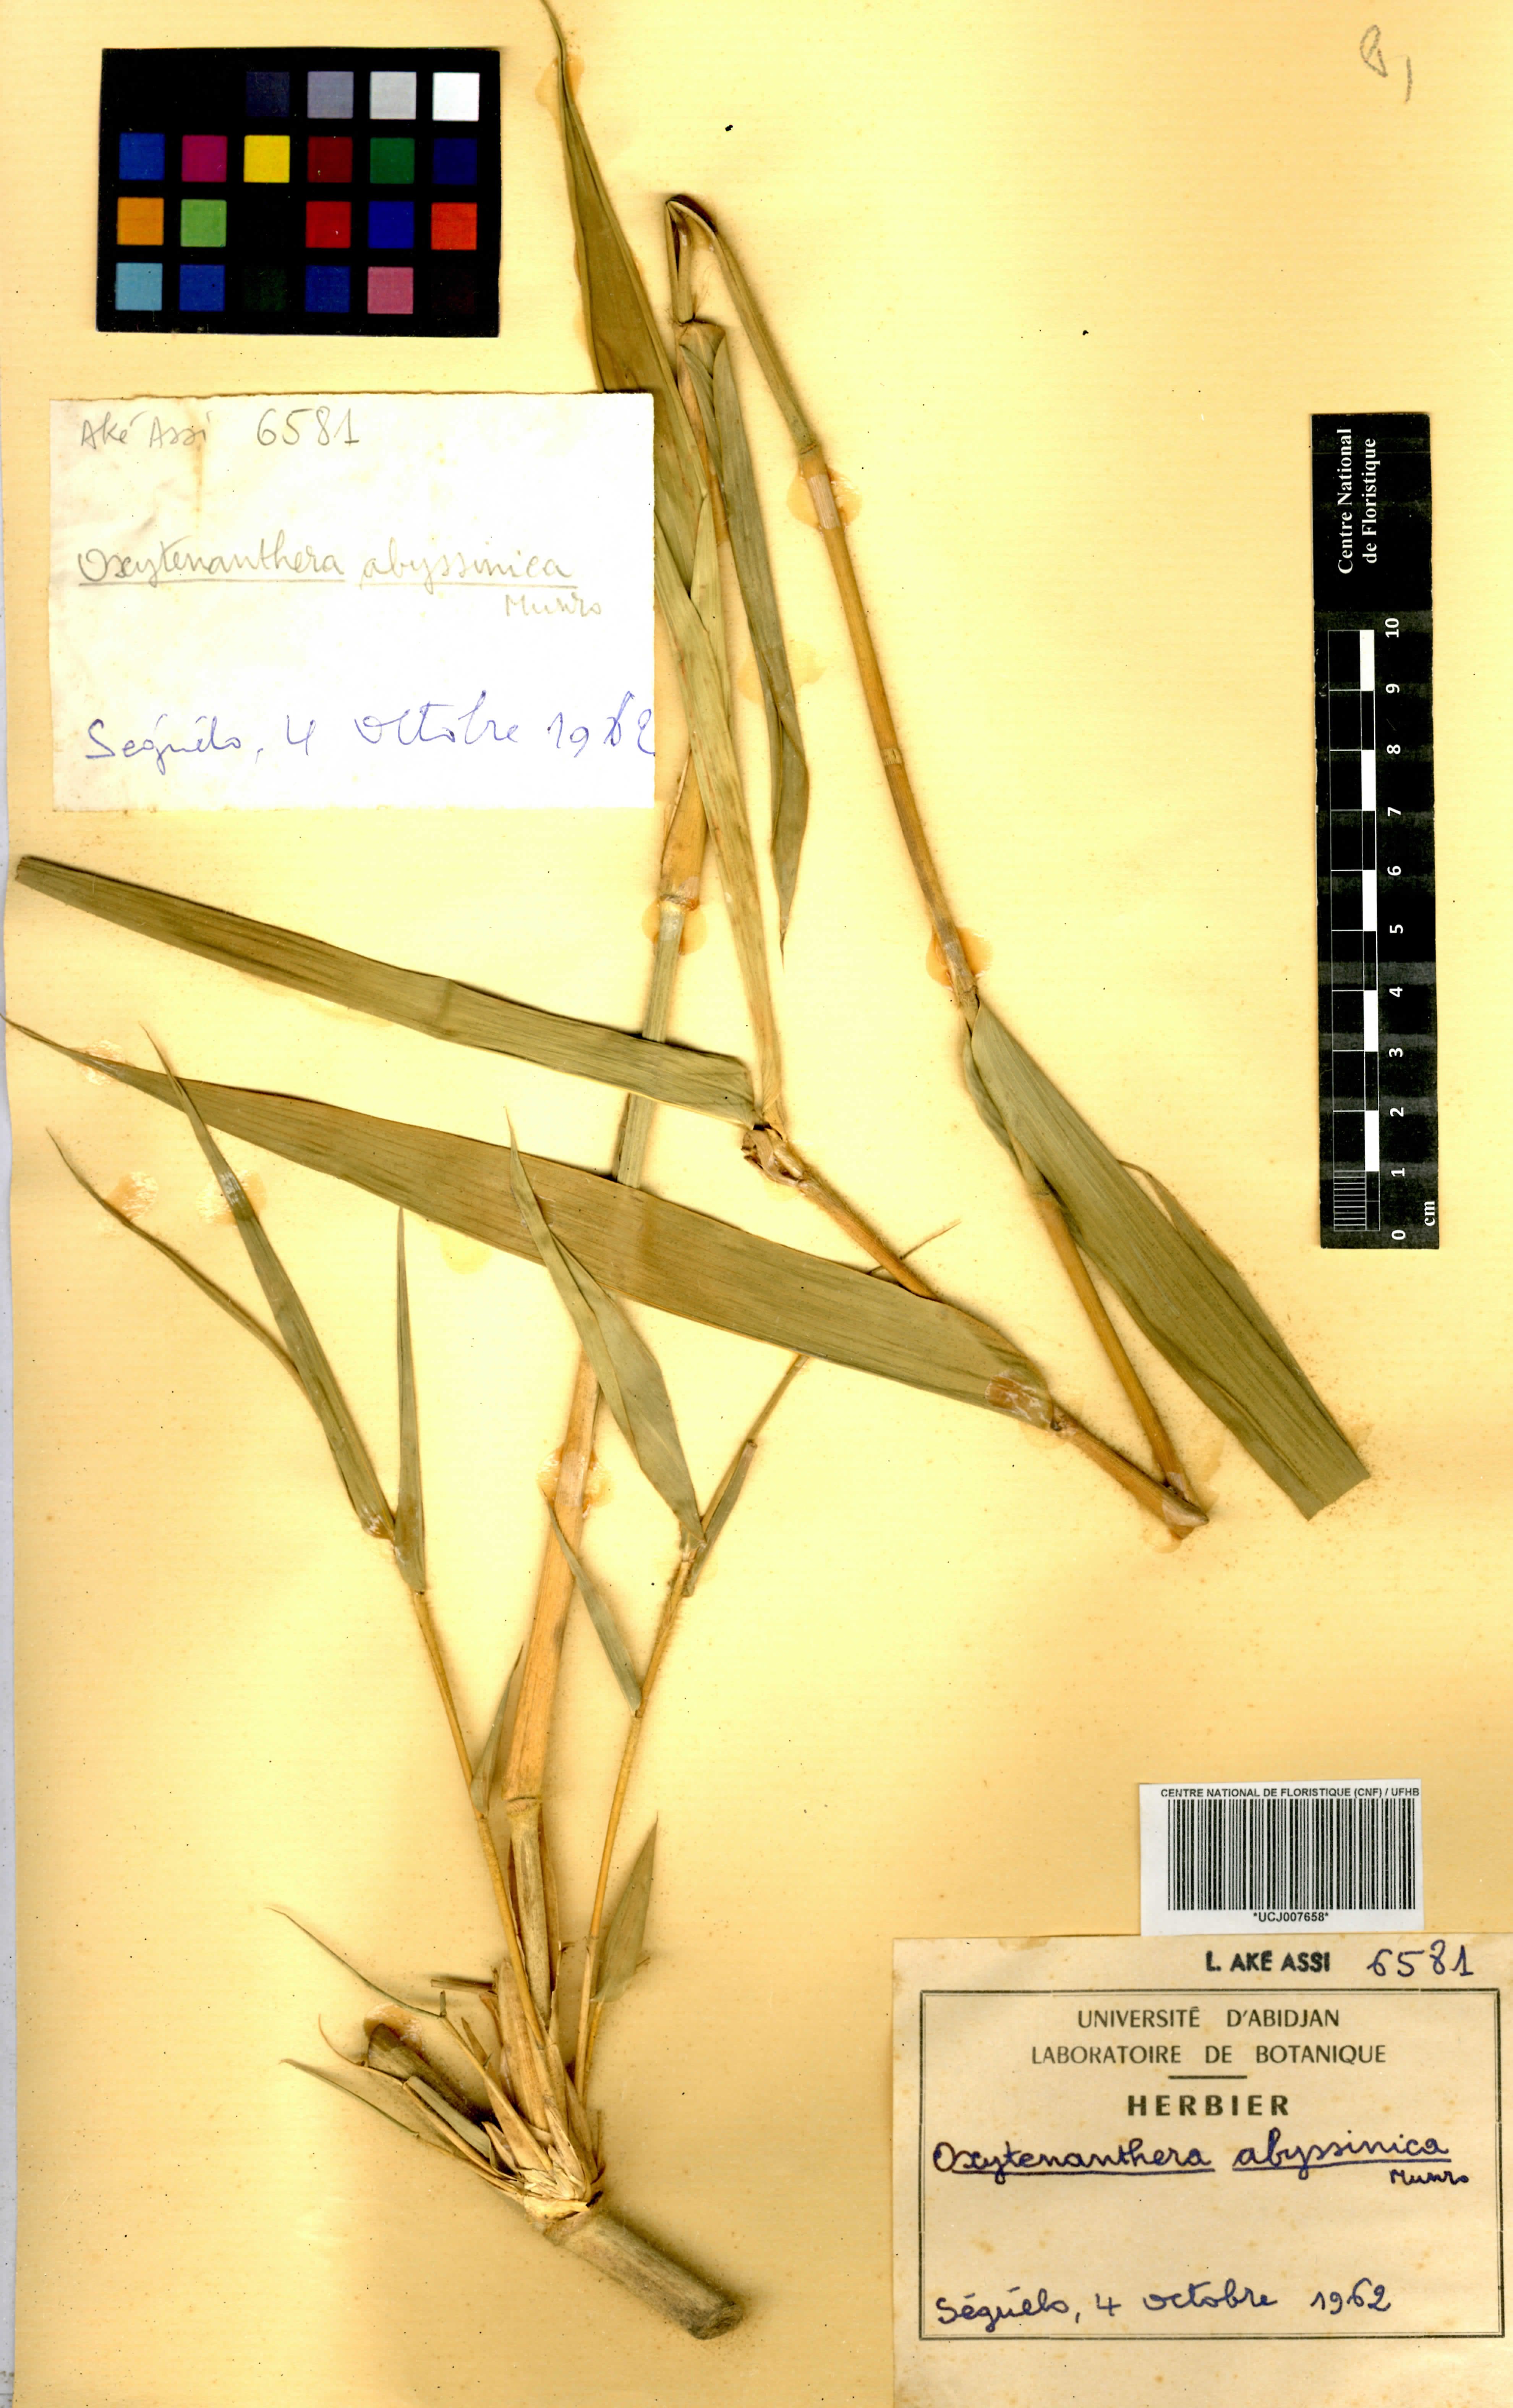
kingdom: Plantae
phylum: Tracheophyta
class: Liliopsida
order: Poales
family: Poaceae
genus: Oxytenanthera
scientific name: Oxytenanthera abyssinica
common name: Wine bamboo
